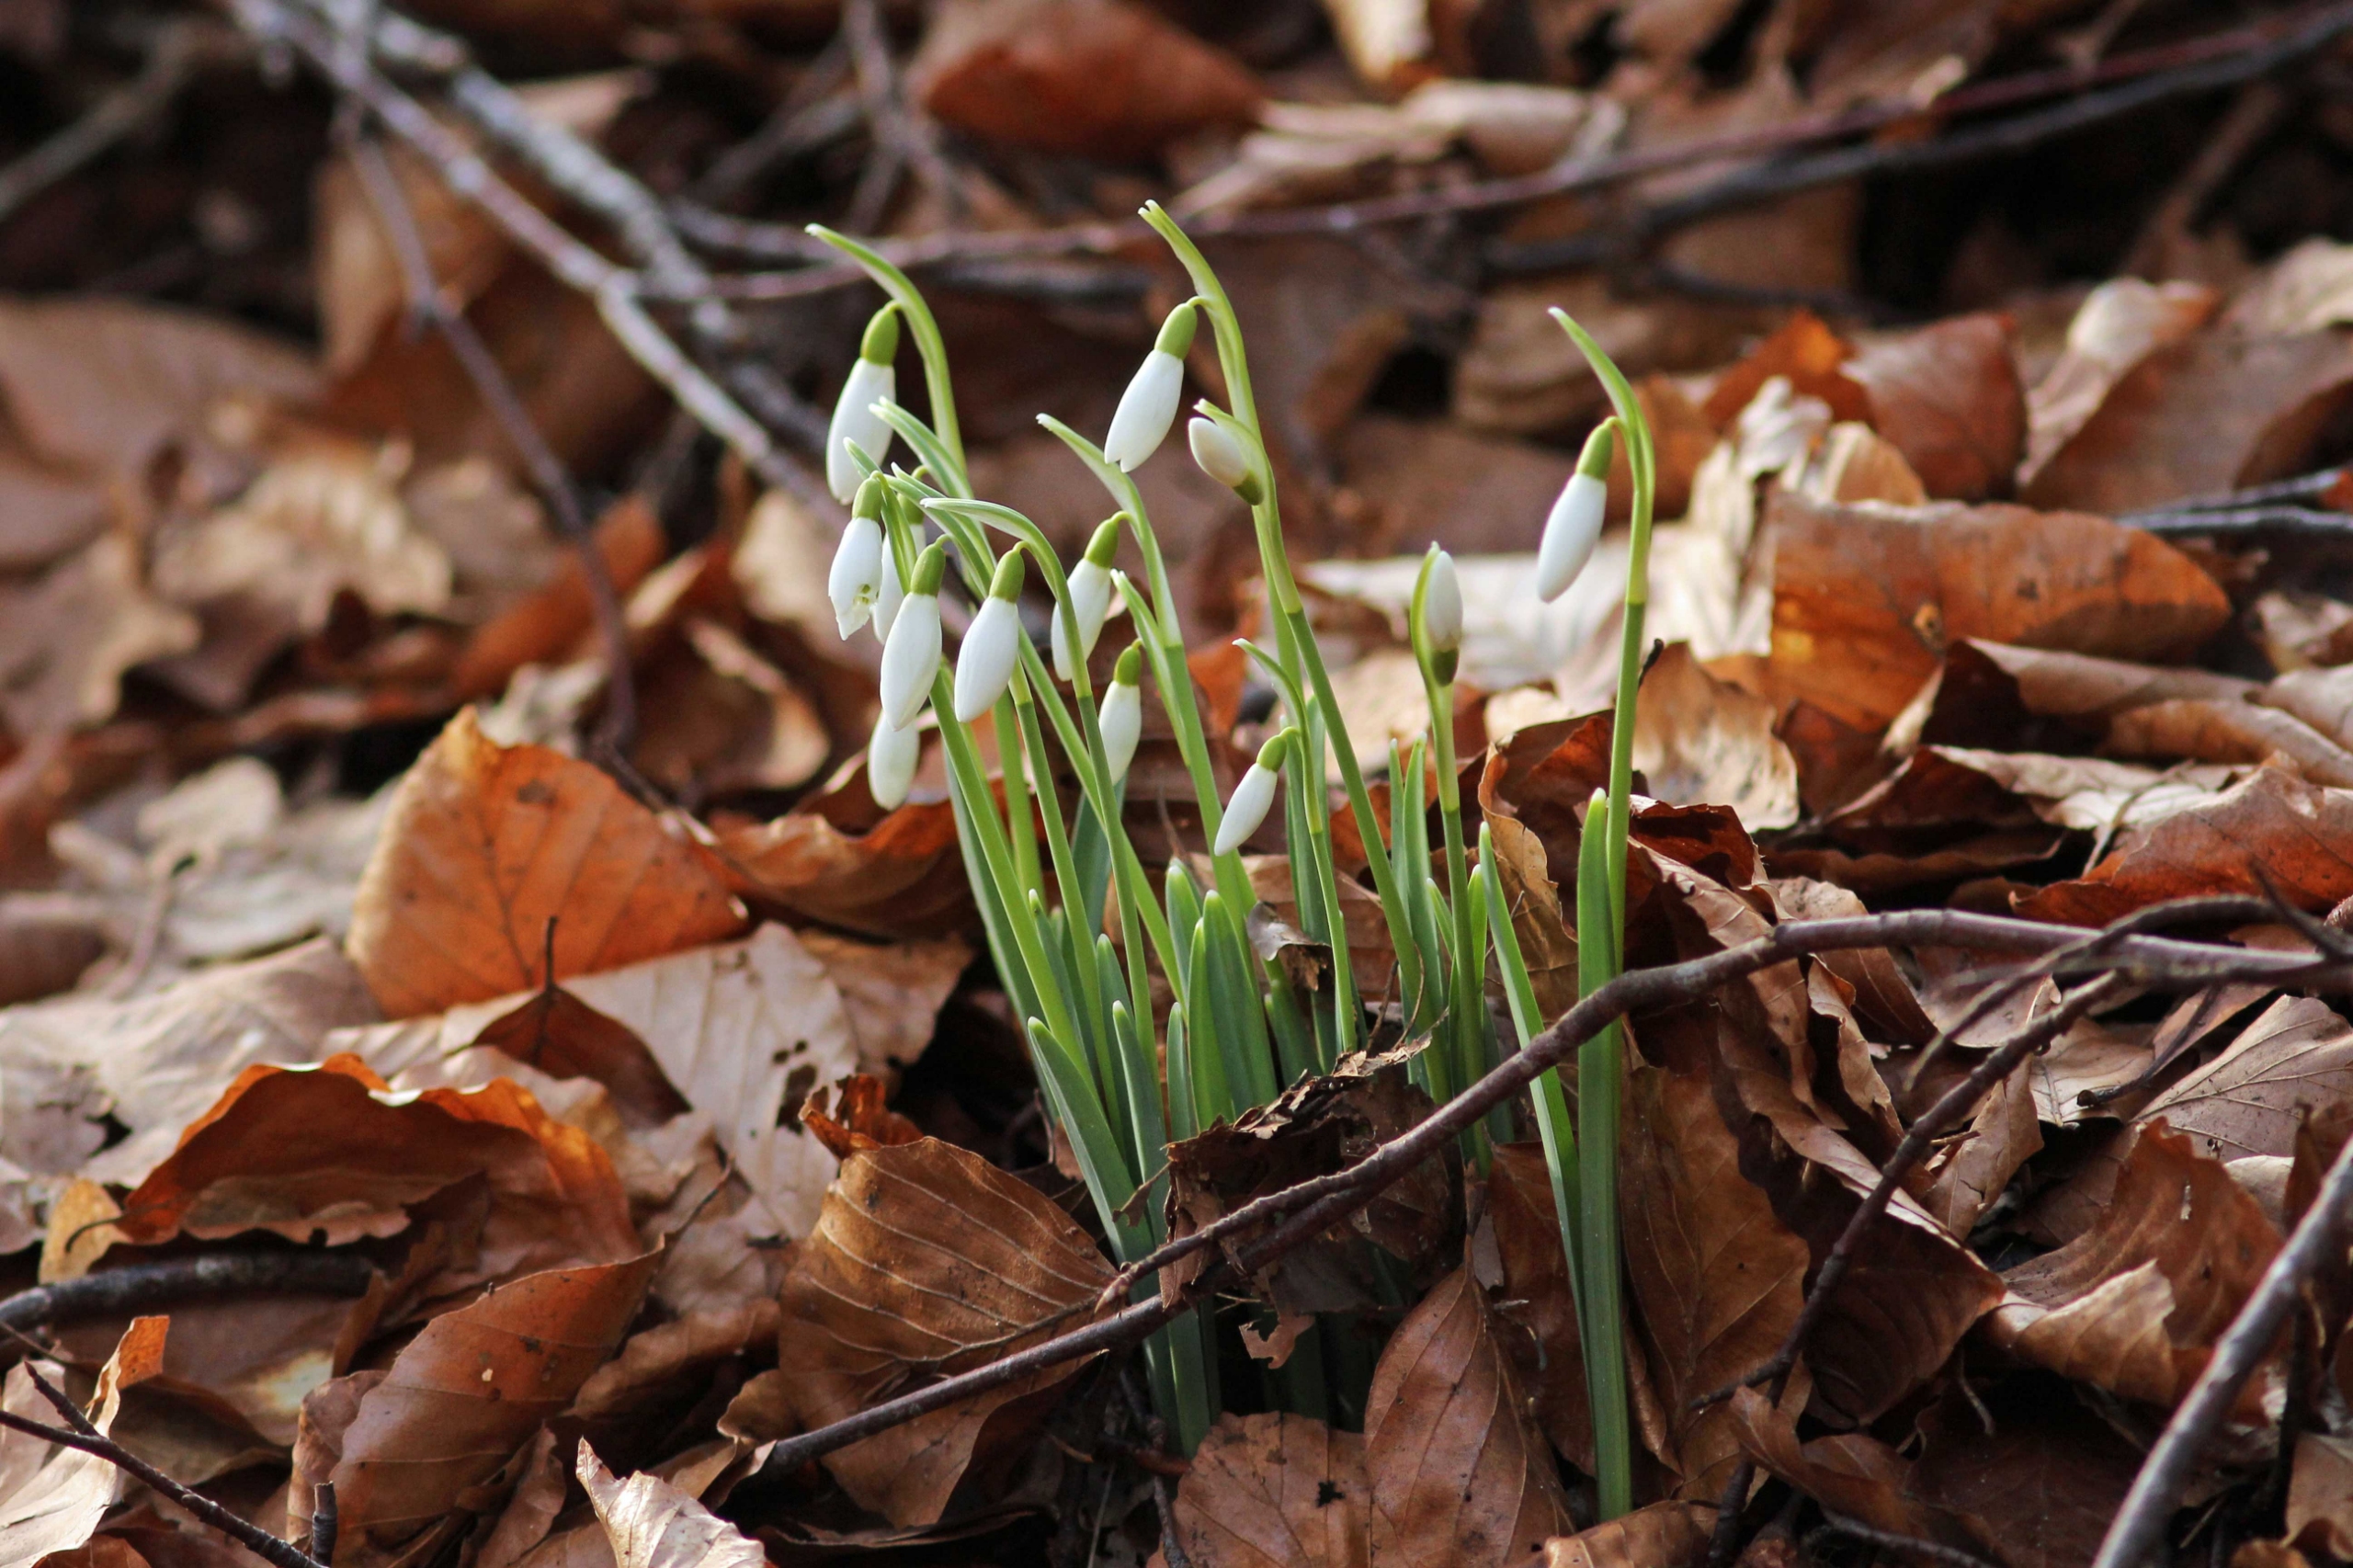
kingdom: Plantae
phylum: Tracheophyta
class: Liliopsida
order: Asparagales
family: Amaryllidaceae
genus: Galanthus
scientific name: Galanthus nivalis
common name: Vintergæk
